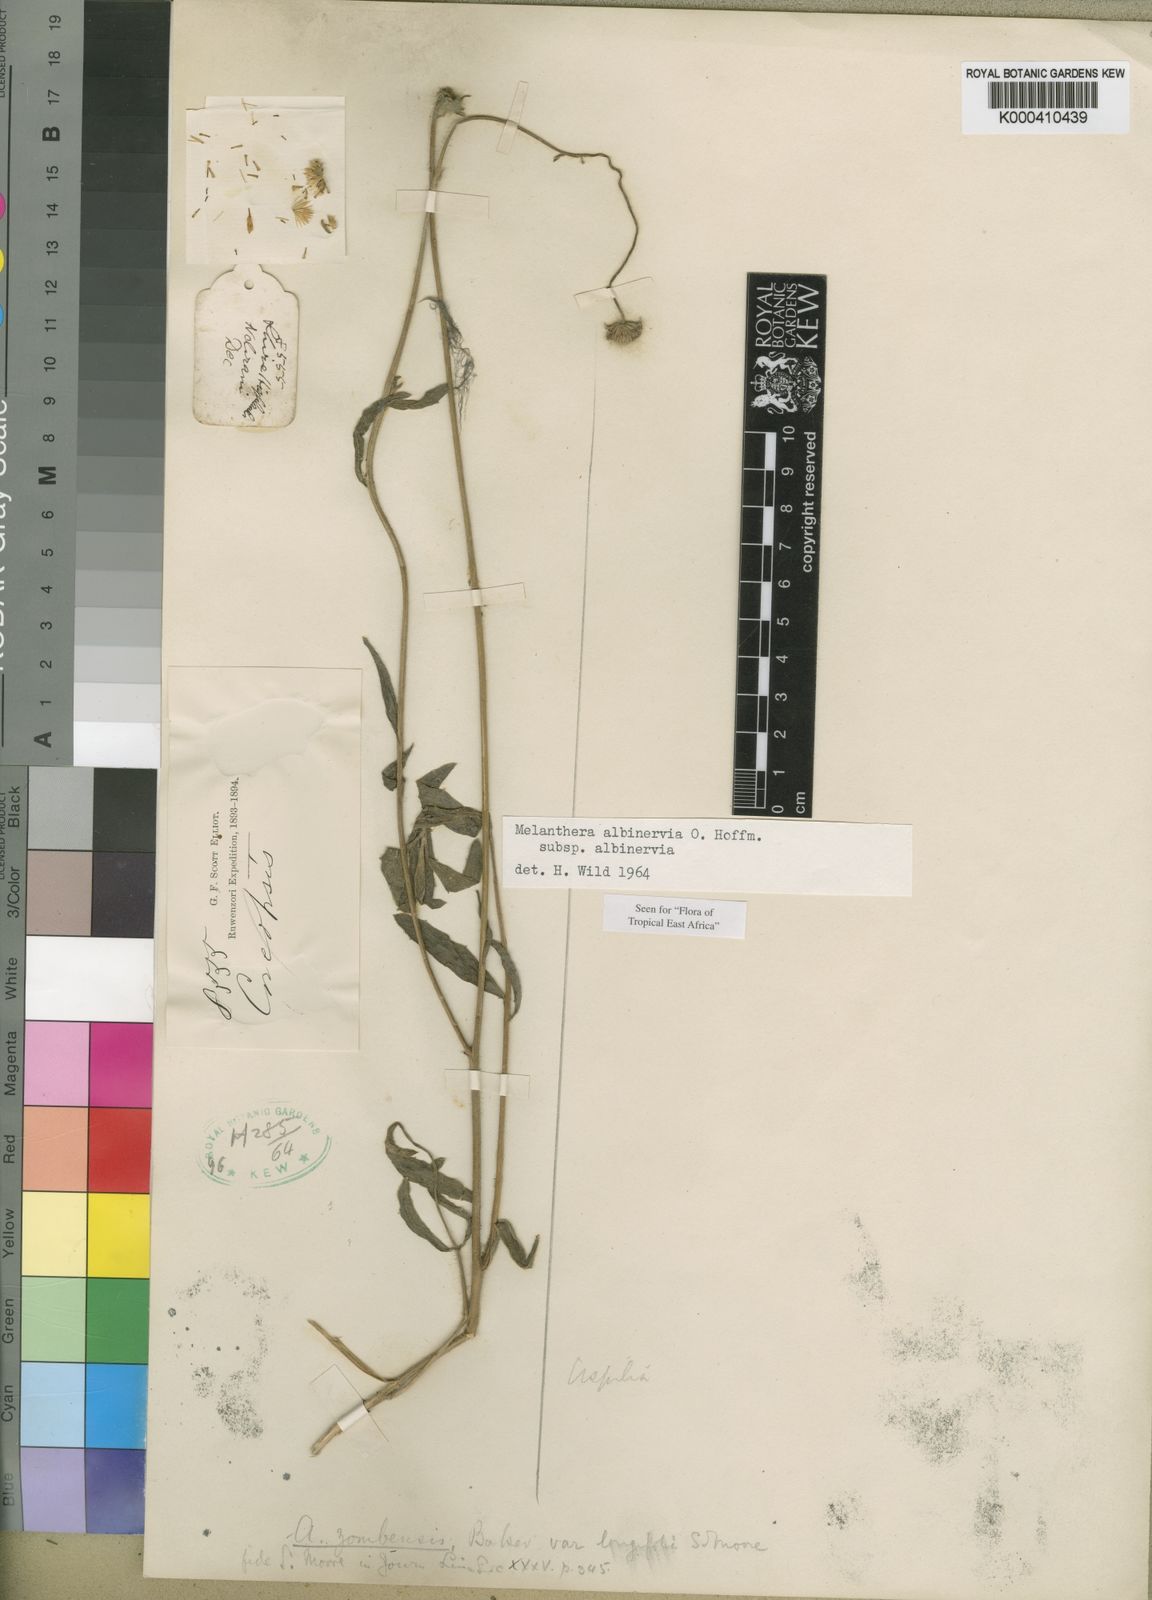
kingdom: Plantae
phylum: Tracheophyta
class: Magnoliopsida
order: Asterales
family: Asteraceae
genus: Lipotriche
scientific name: Lipotriche marlothiana
